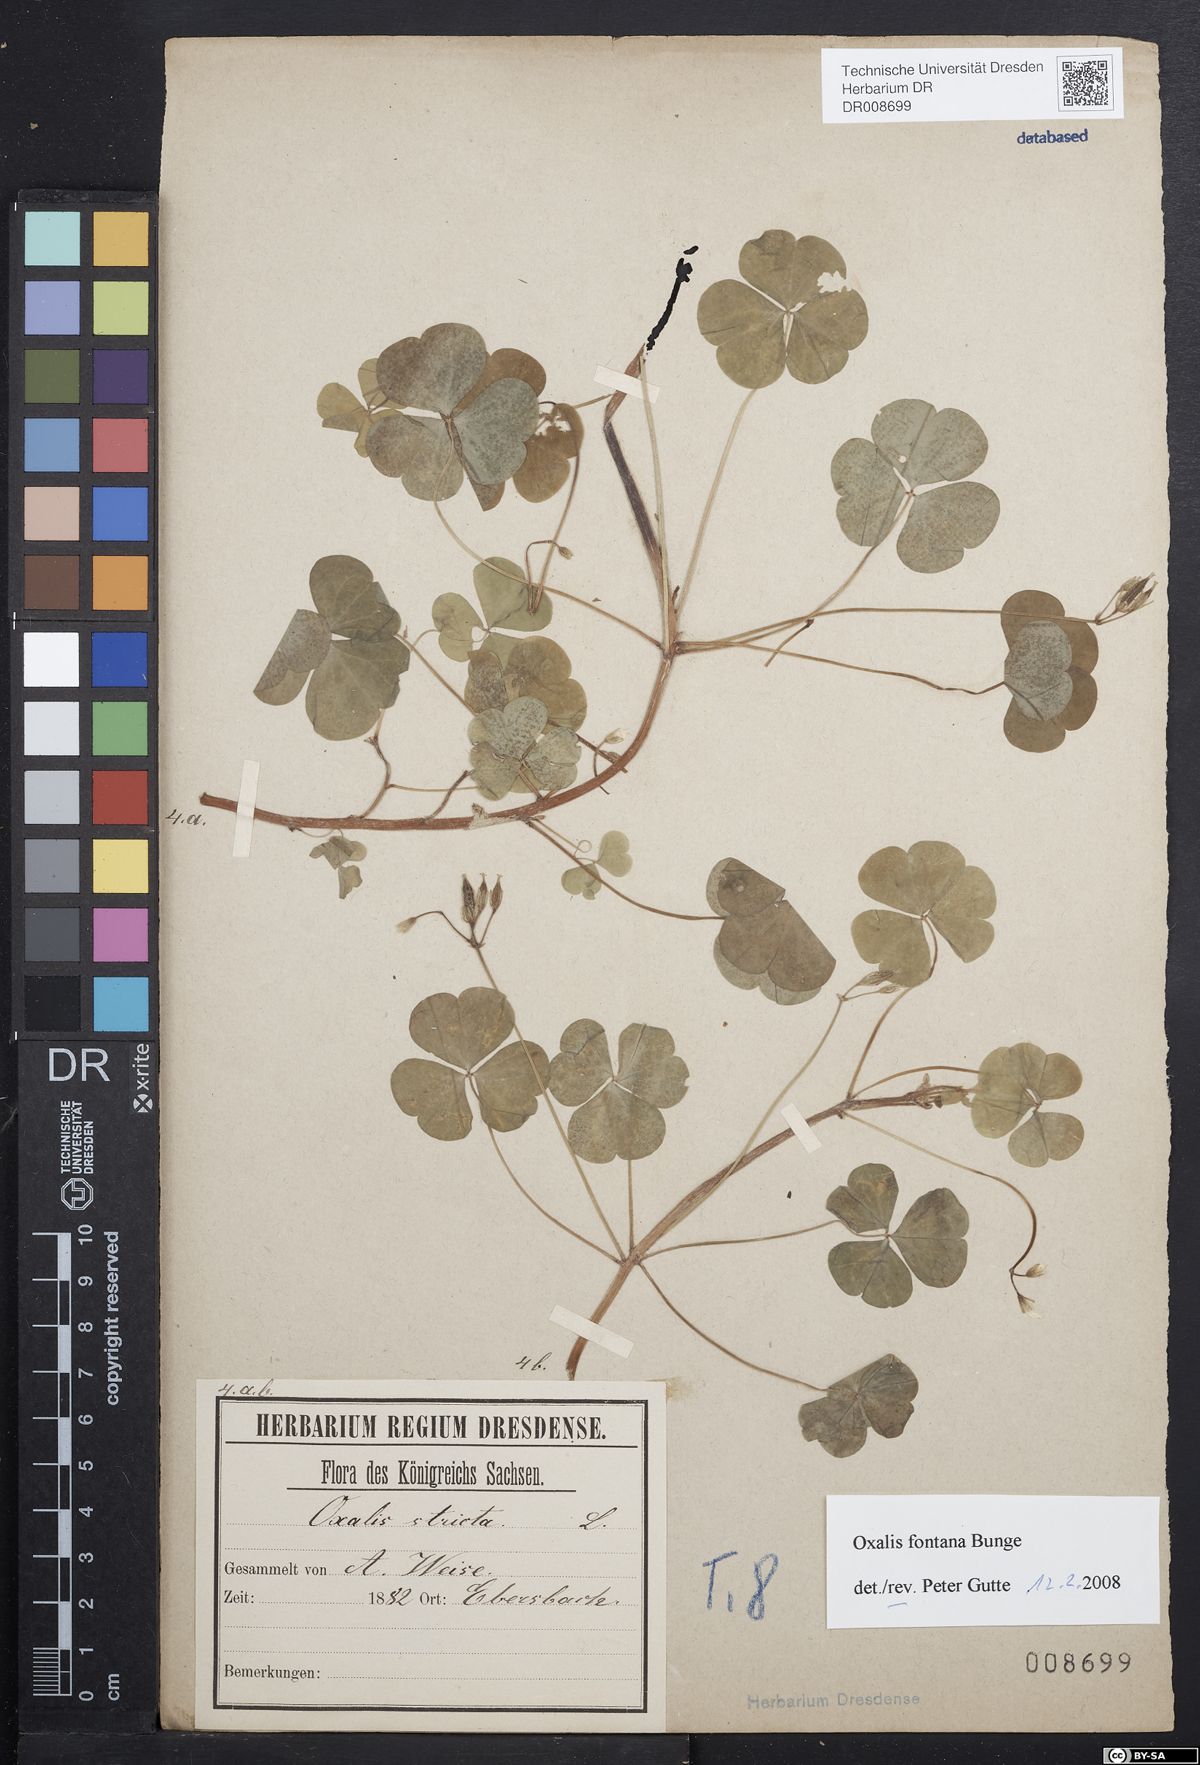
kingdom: Plantae
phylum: Tracheophyta
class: Magnoliopsida
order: Oxalidales
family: Oxalidaceae
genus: Oxalis
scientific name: Oxalis stricta
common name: Upright yellow-sorrel
